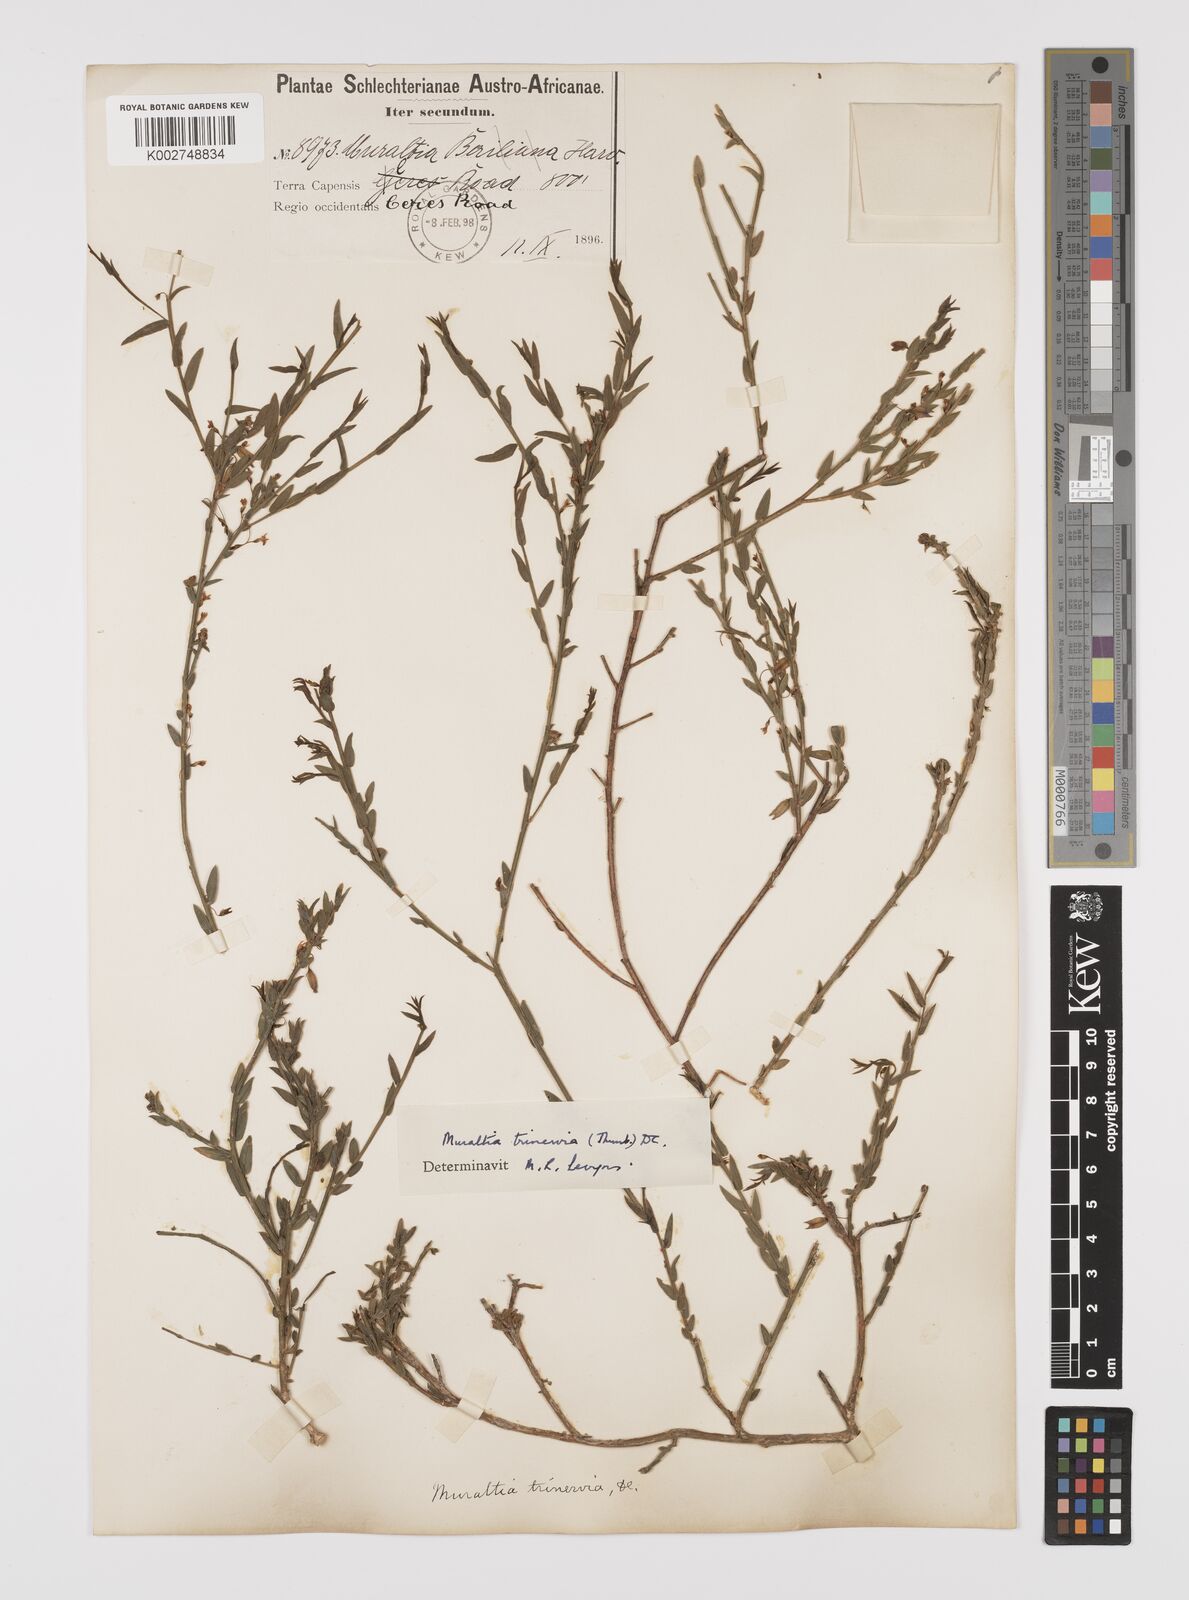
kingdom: Plantae
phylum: Tracheophyta
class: Magnoliopsida
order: Fabales
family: Polygalaceae
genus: Muraltia
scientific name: Muraltia trinervia
